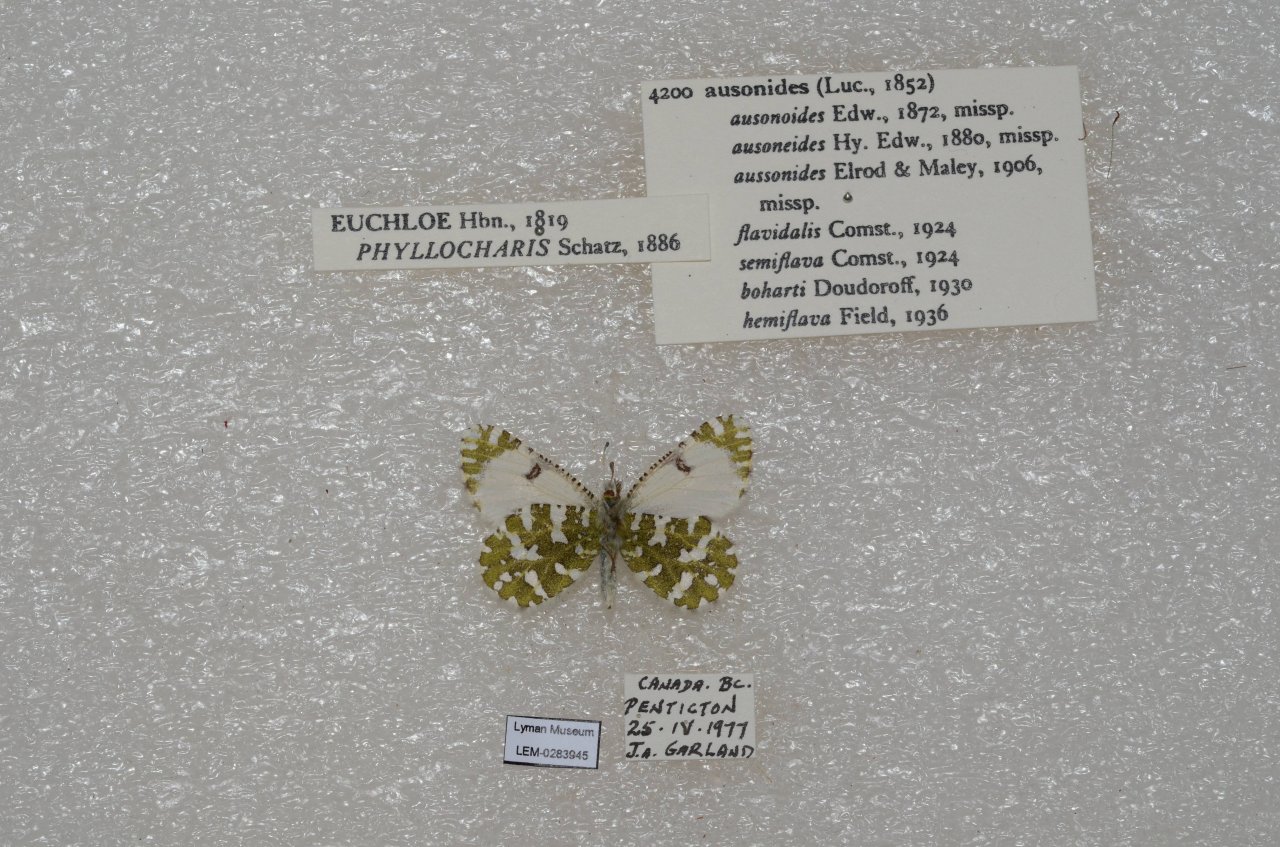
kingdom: Animalia
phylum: Arthropoda
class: Insecta
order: Lepidoptera
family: Pieridae
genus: Euchloe
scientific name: Euchloe ausonides
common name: Large Marble
